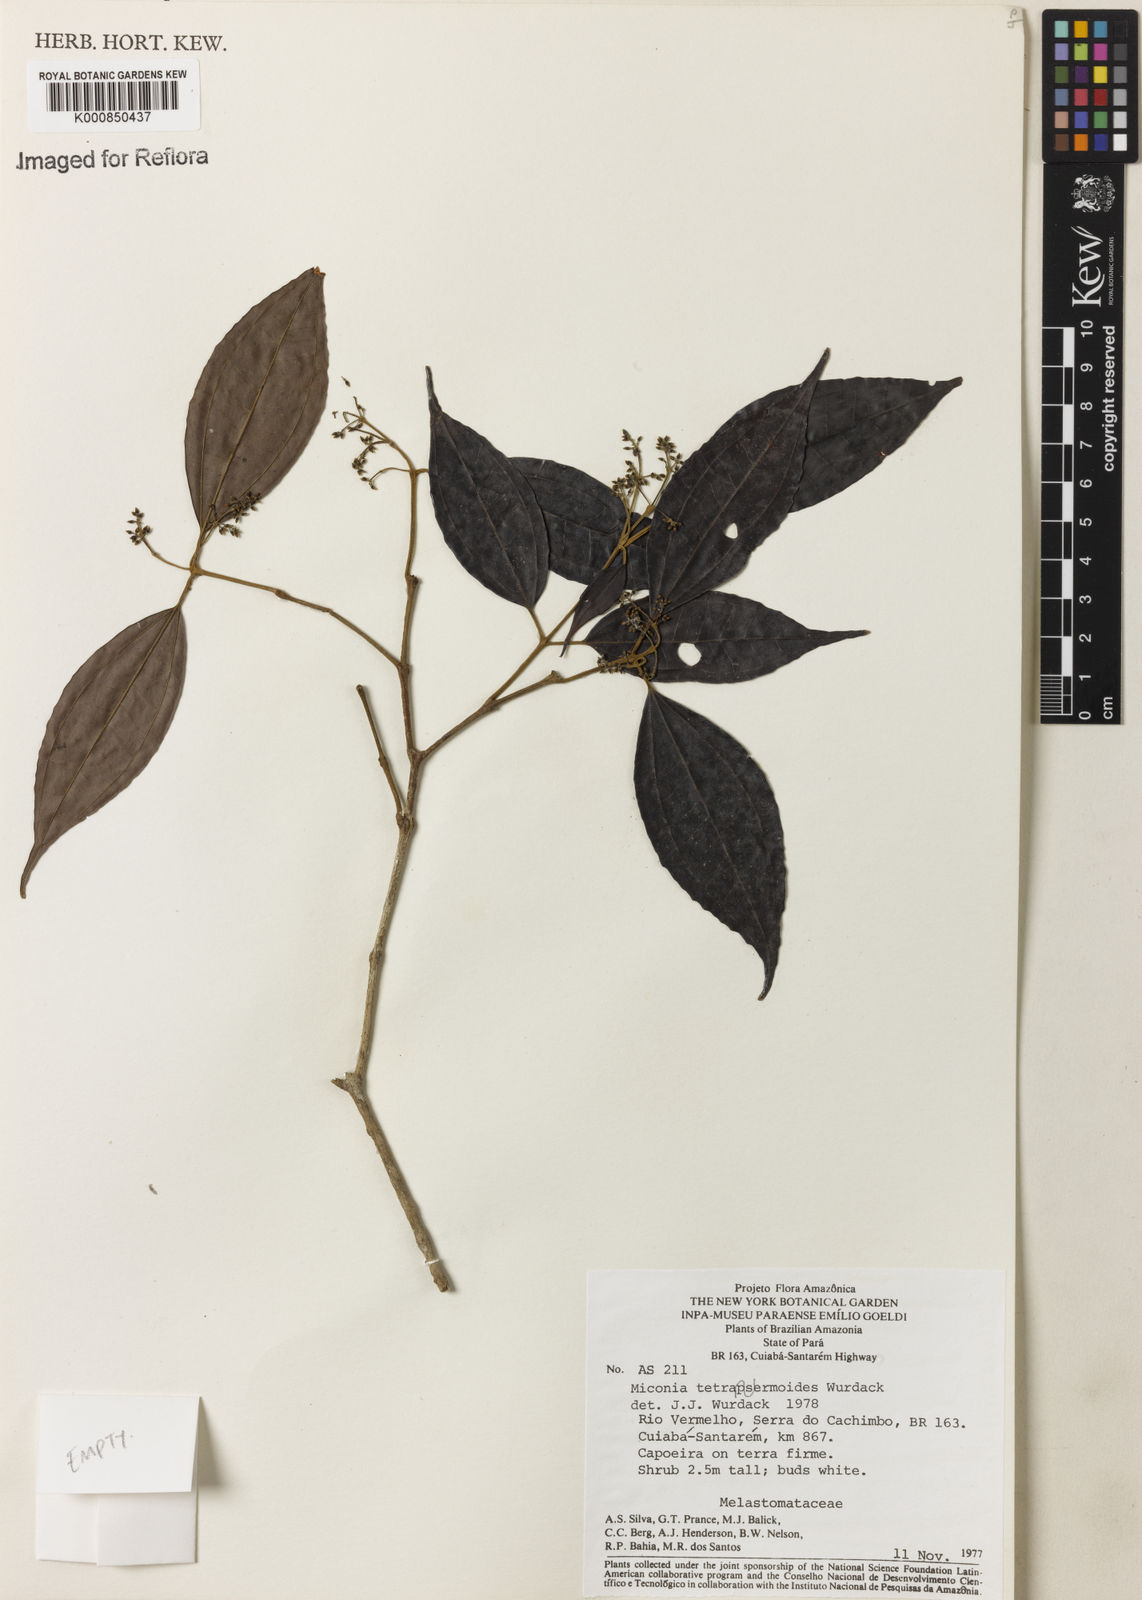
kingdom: Plantae
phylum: Tracheophyta
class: Magnoliopsida
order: Myrtales
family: Melastomataceae
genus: Miconia
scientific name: Miconia tetraspermoides
